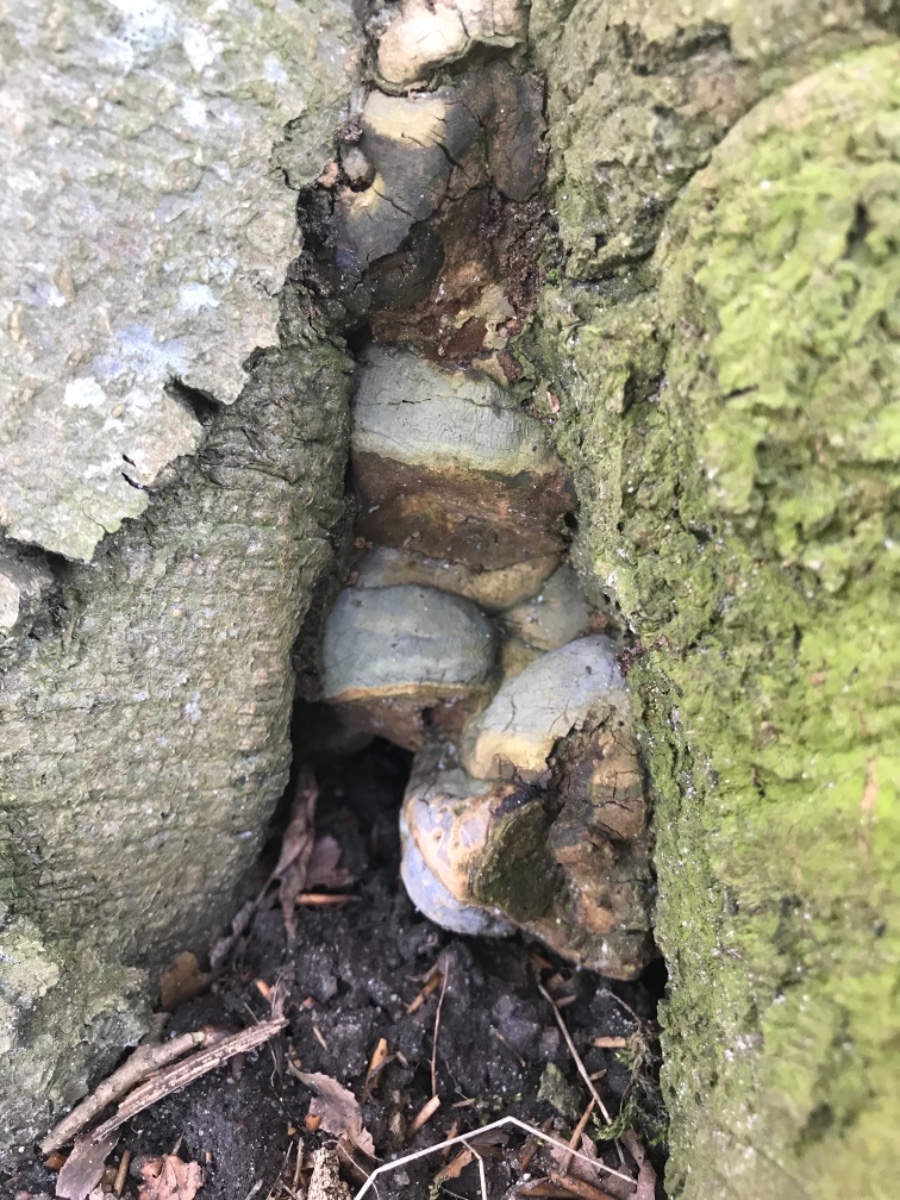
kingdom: Fungi
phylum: Basidiomycota
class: Agaricomycetes
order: Polyporales
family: Polyporaceae
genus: Ganoderma
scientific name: Ganoderma pfeifferi
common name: kobberrød lakporesvamp
